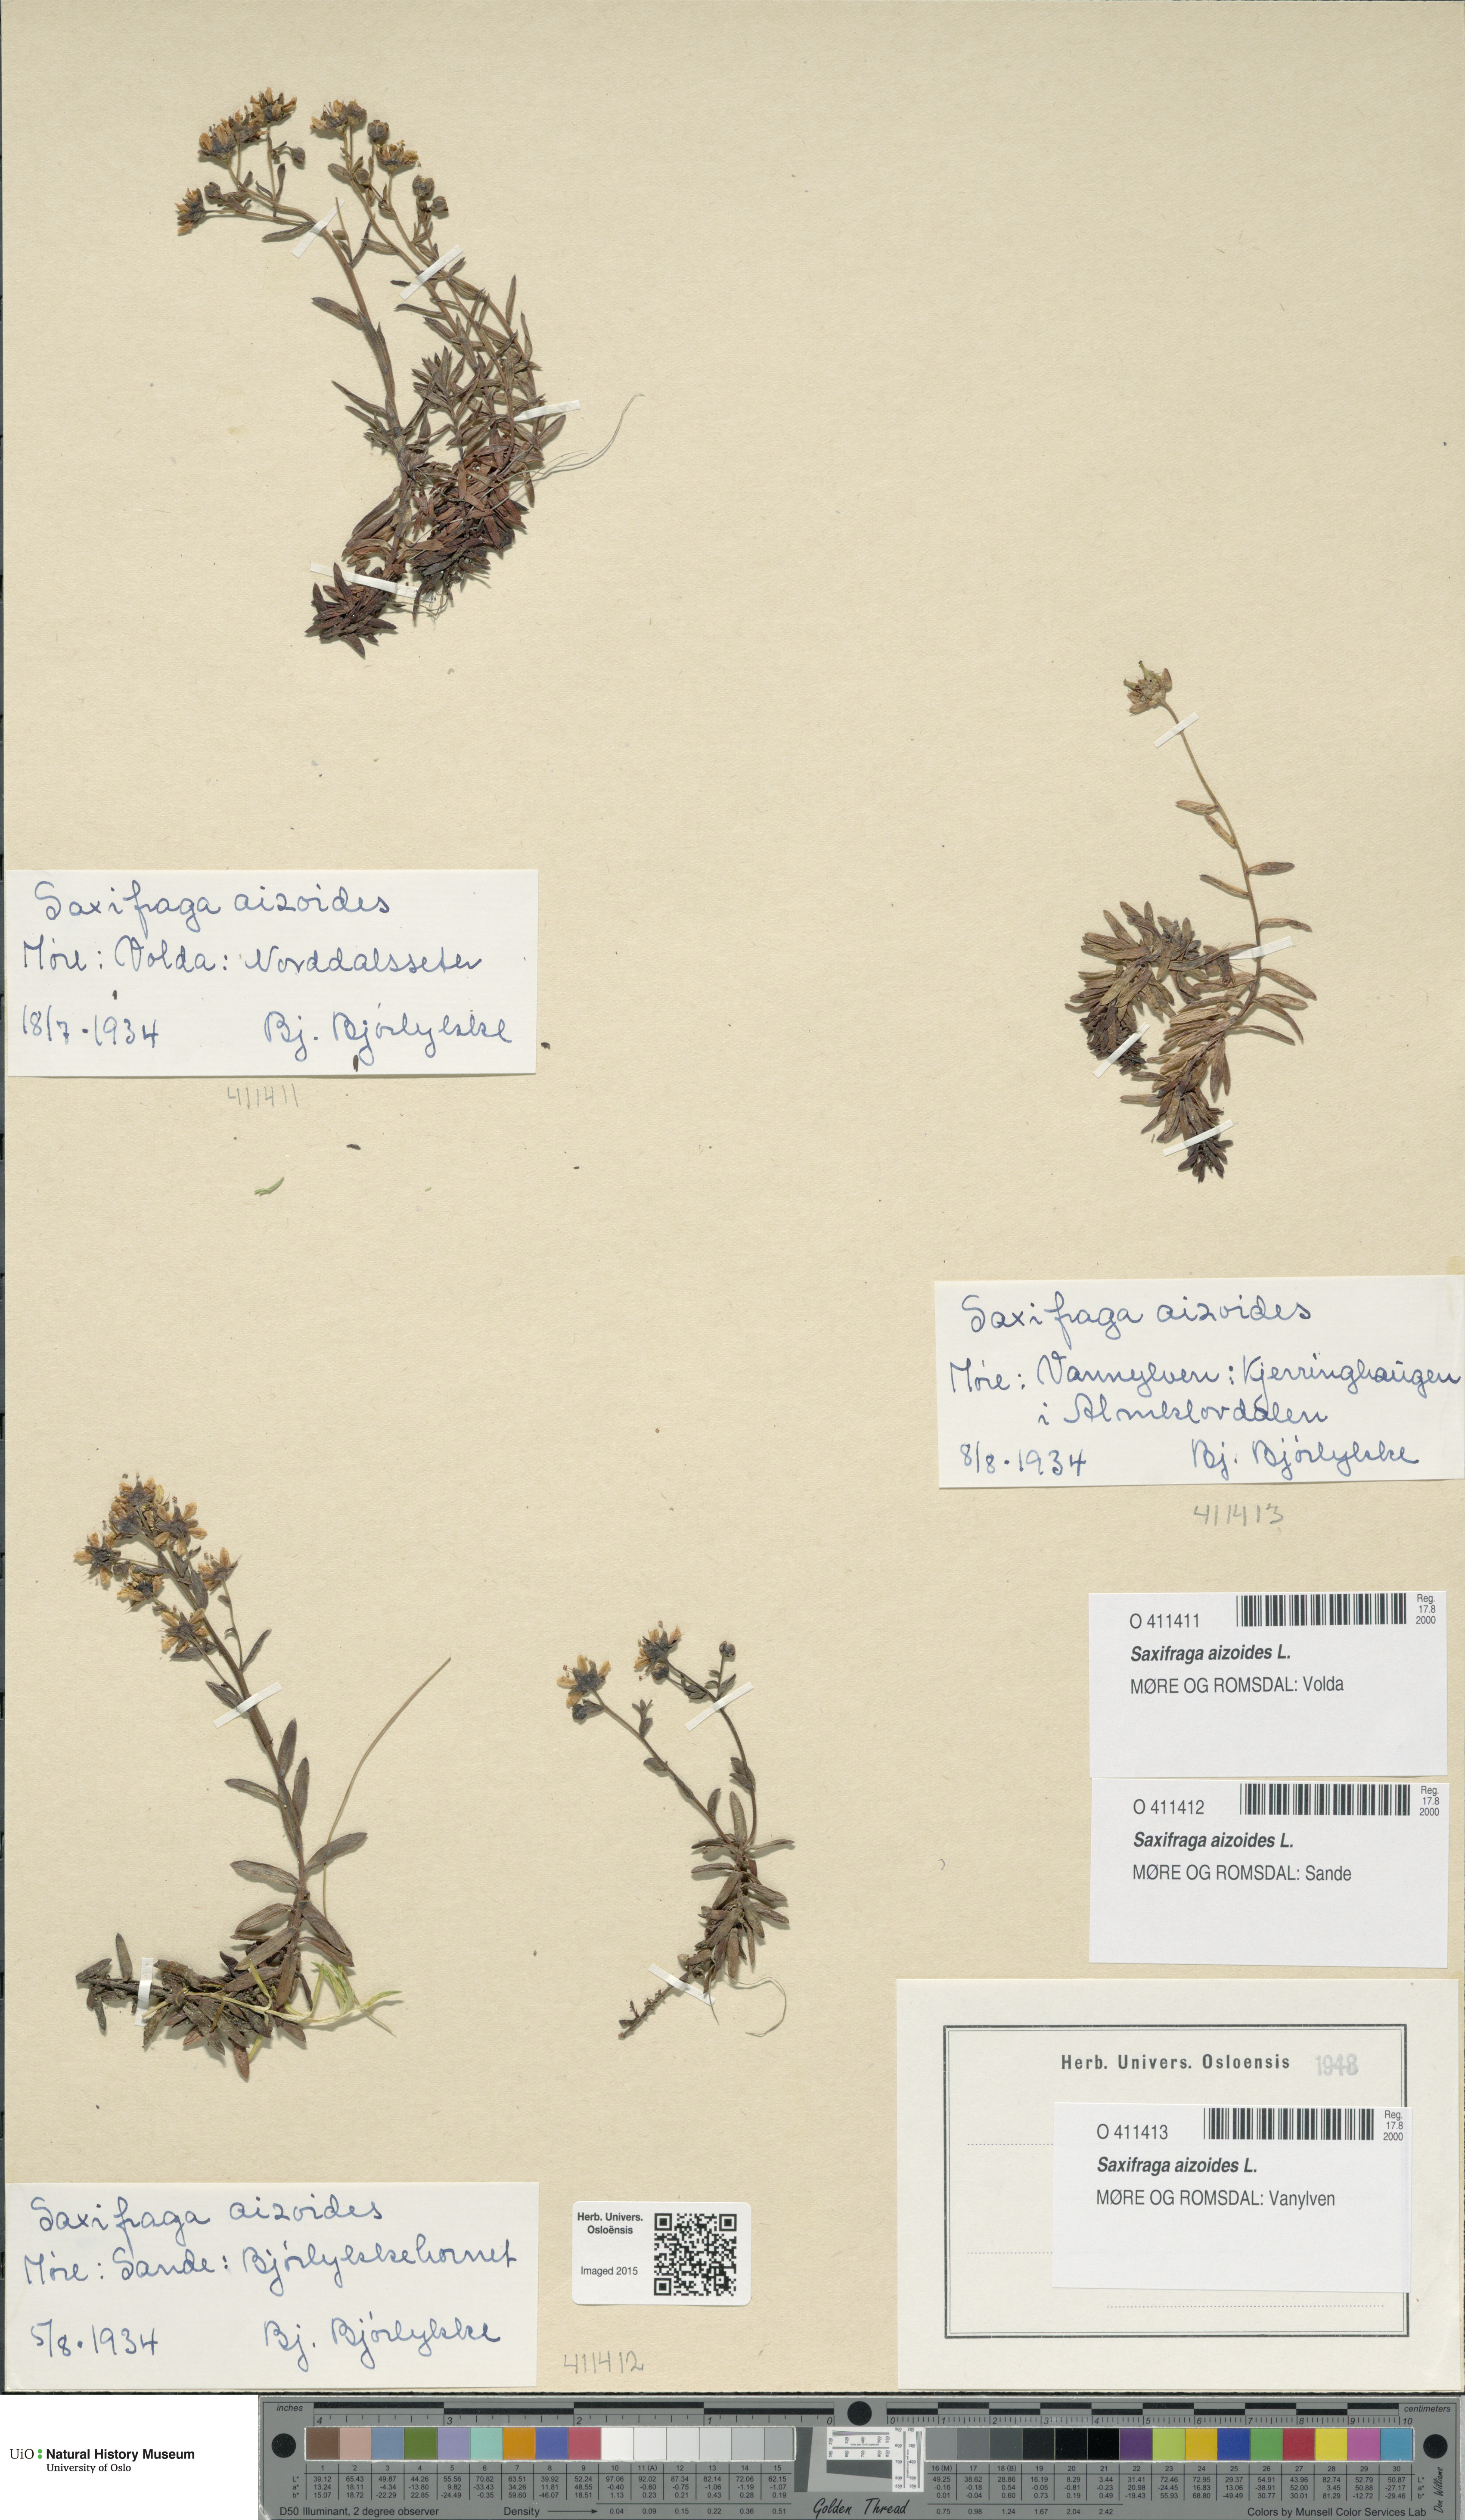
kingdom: Plantae
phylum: Tracheophyta
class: Magnoliopsida
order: Saxifragales
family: Saxifragaceae
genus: Saxifraga
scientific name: Saxifraga aizoides
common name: Yellow mountain saxifrage
